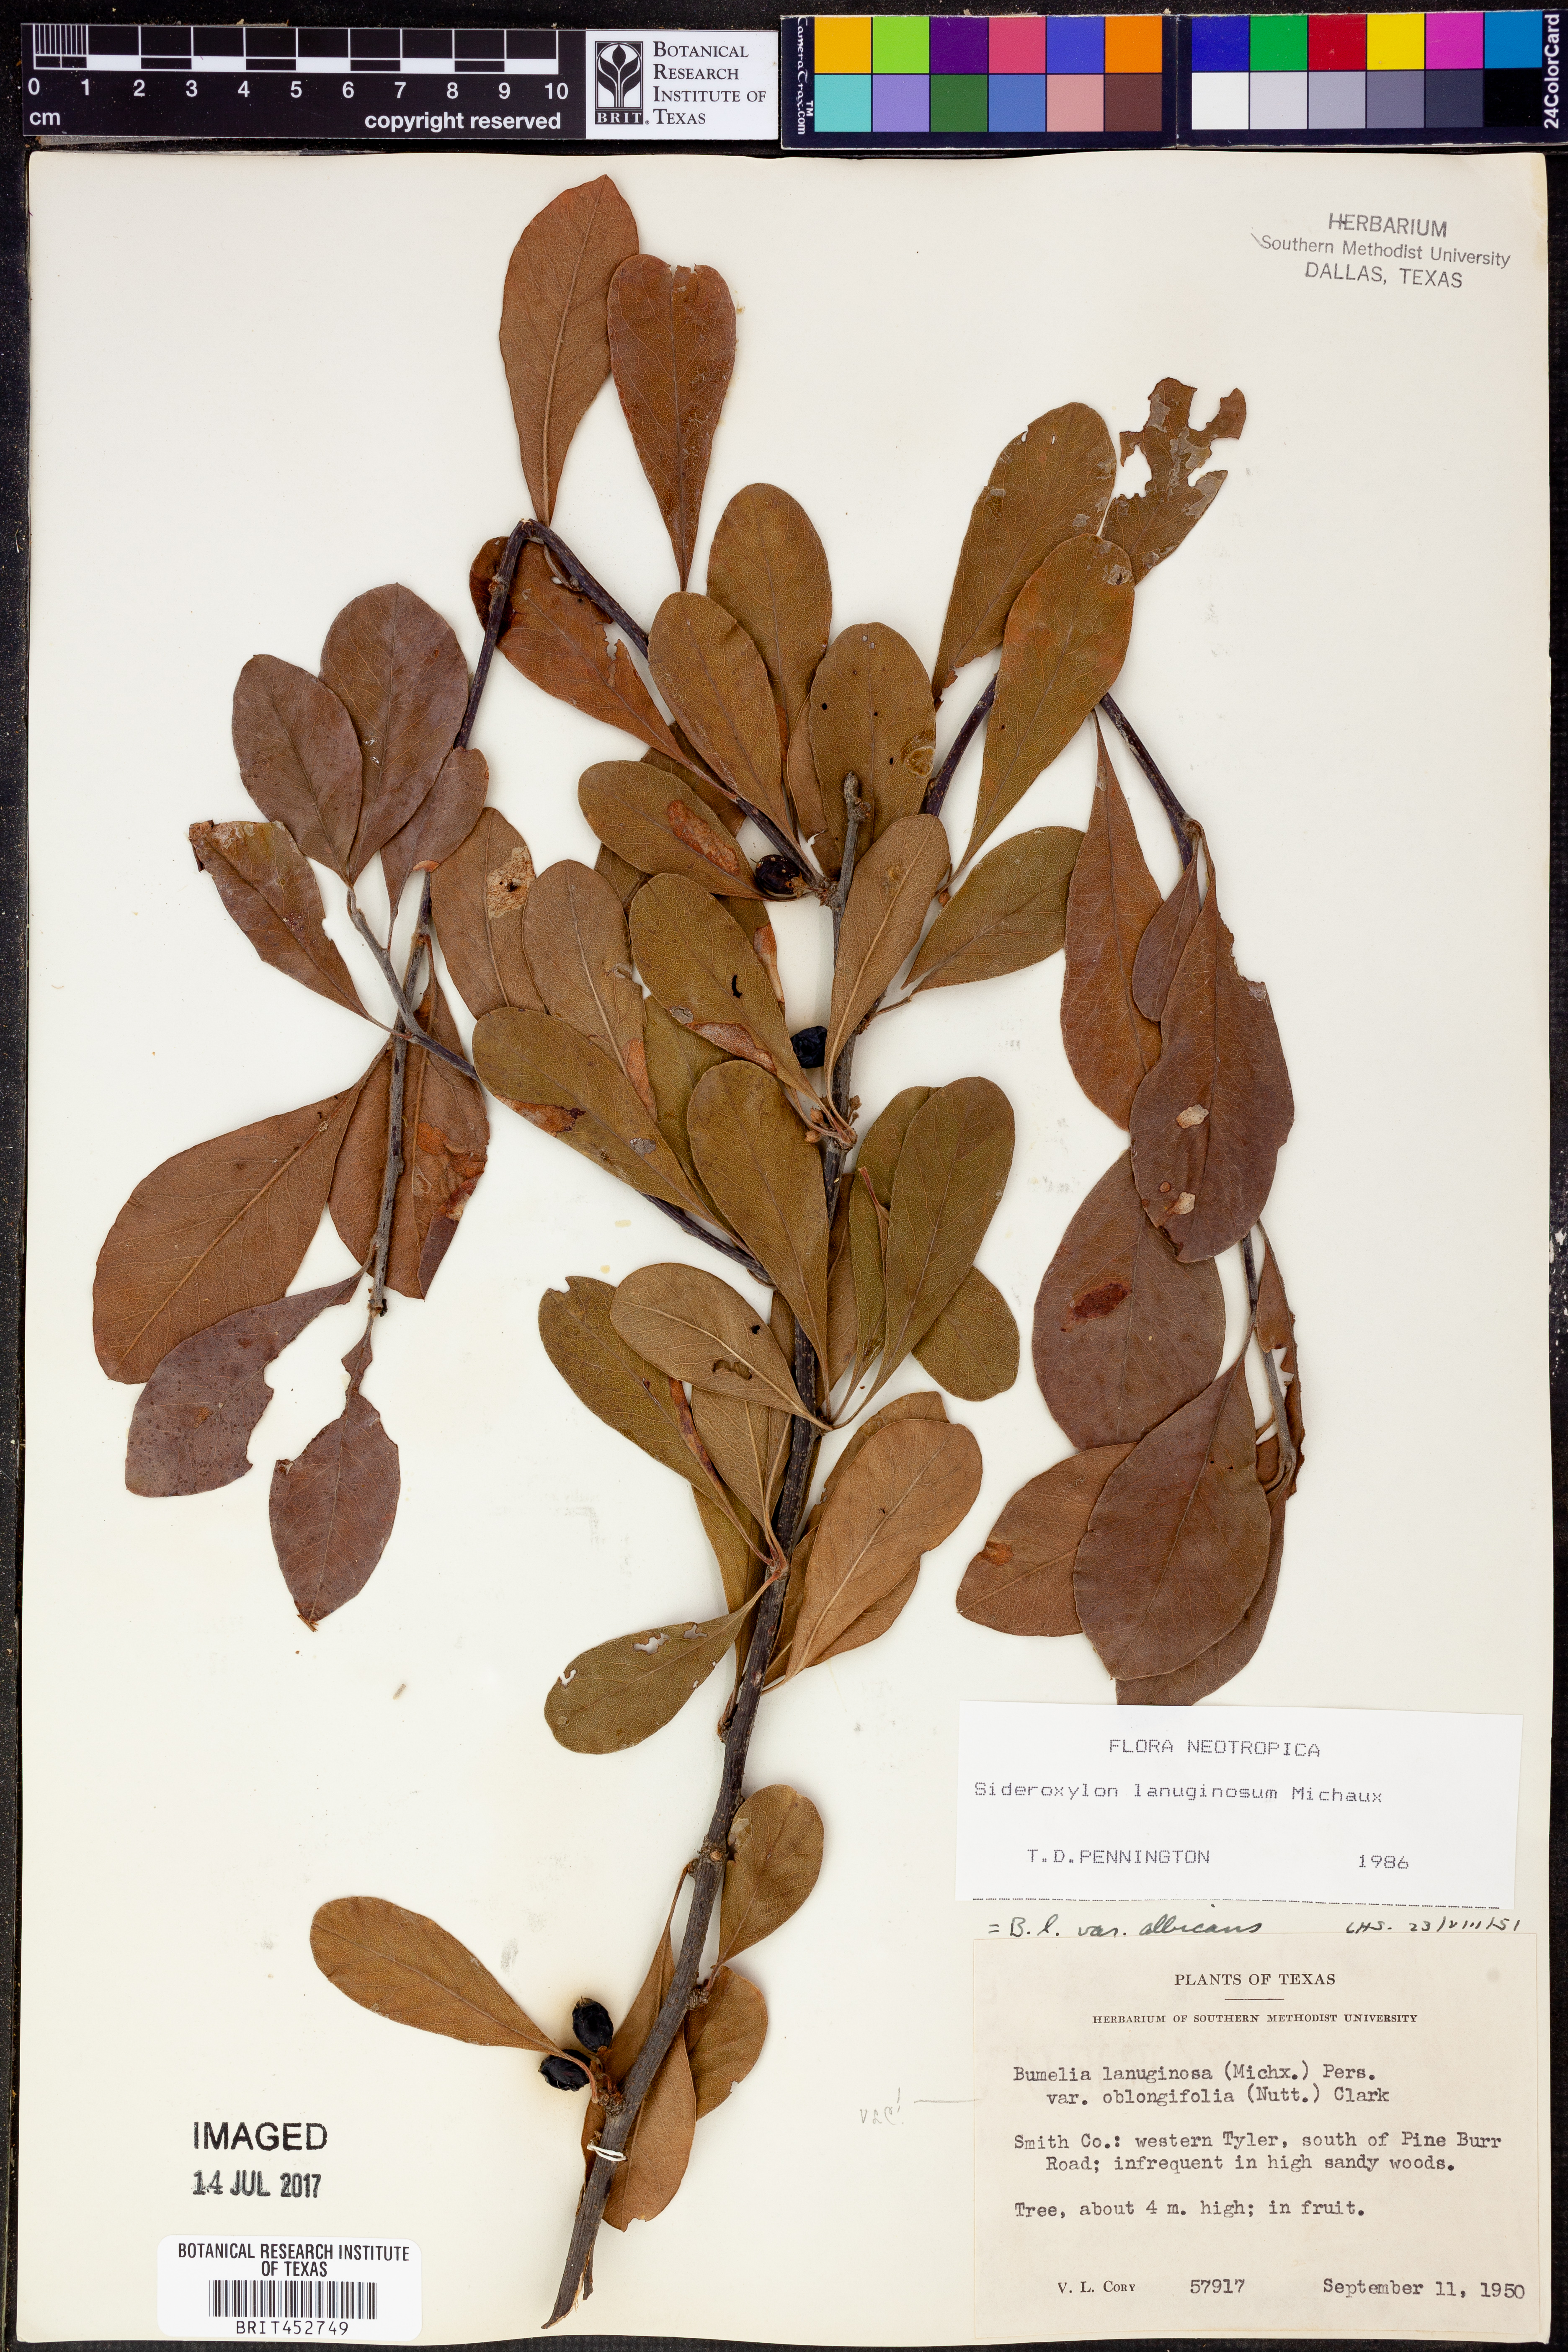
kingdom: Plantae
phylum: Tracheophyta
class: Magnoliopsida
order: Ericales
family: Sapotaceae
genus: Sideroxylon
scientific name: Sideroxylon lanuginosum
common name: Chittamwood
